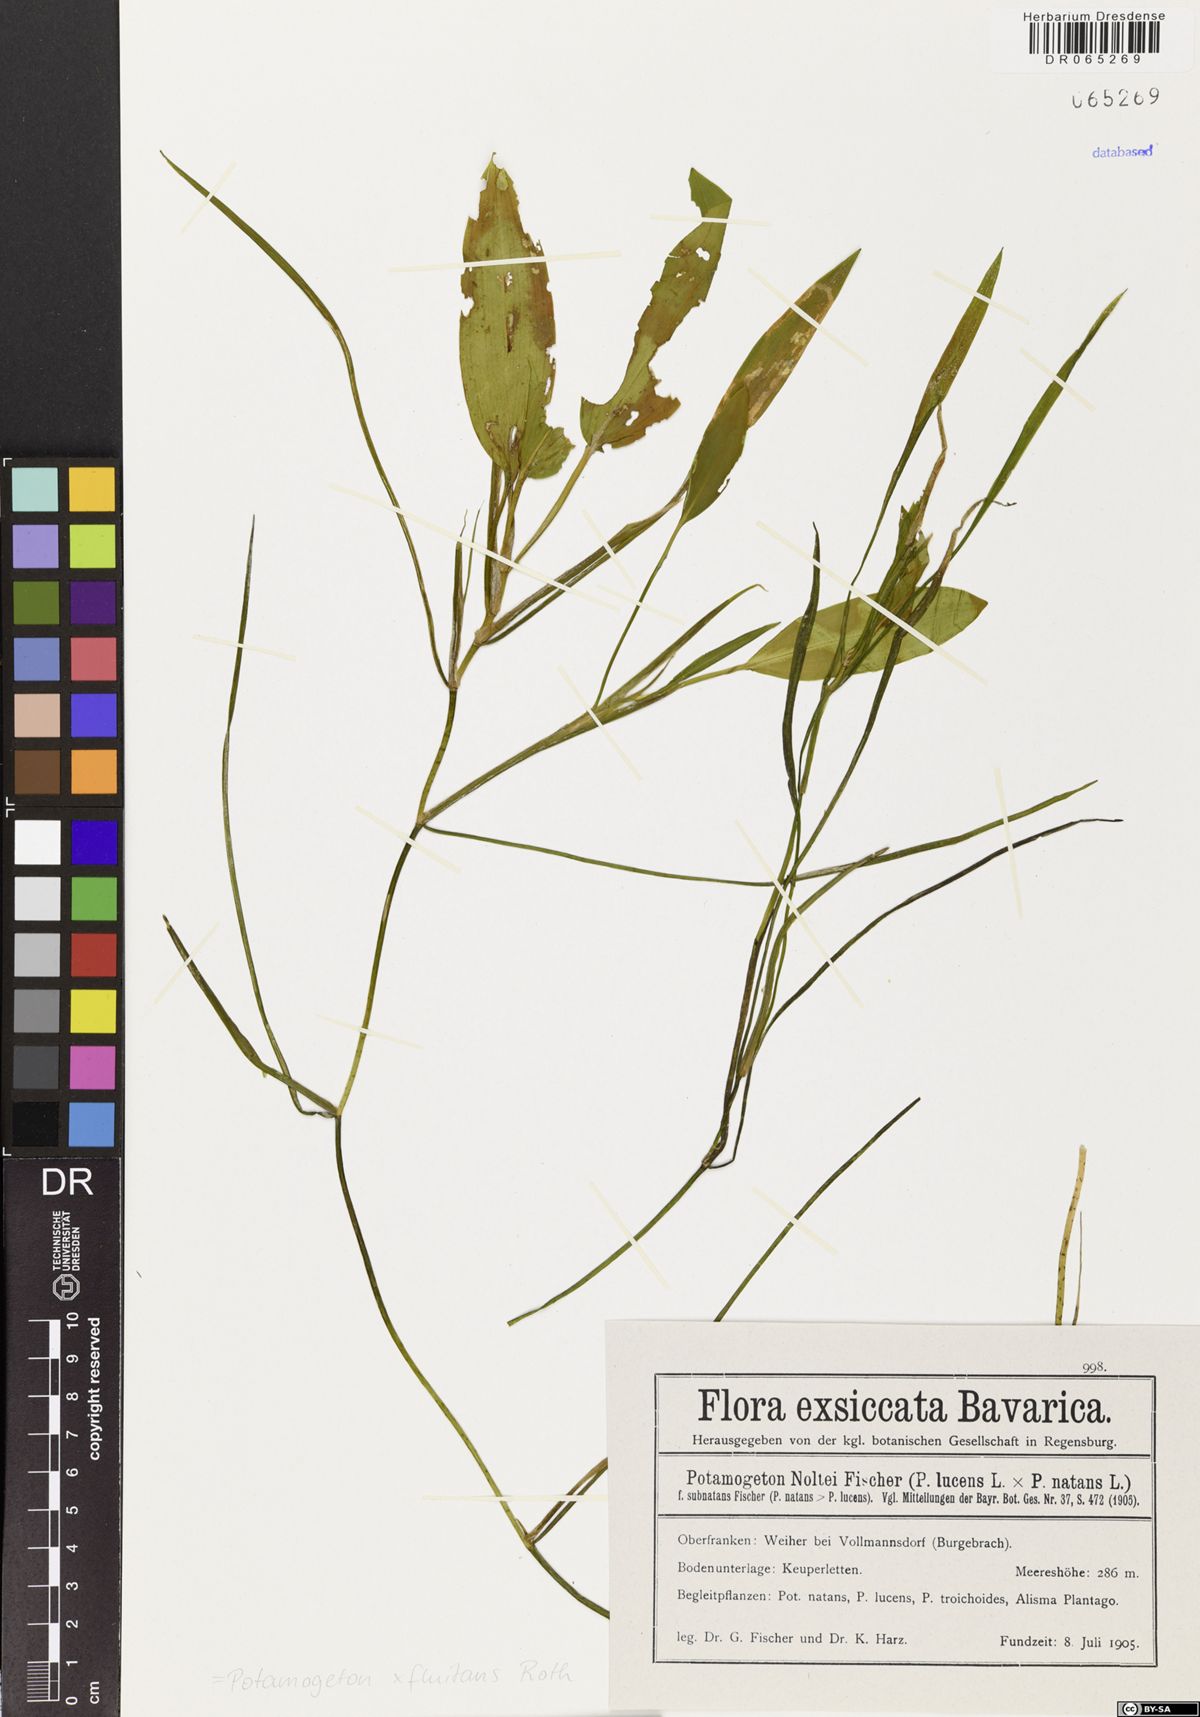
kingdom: Plantae
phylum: Tracheophyta
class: Liliopsida
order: Alismatales
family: Potamogetonaceae
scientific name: Potamogetonaceae
